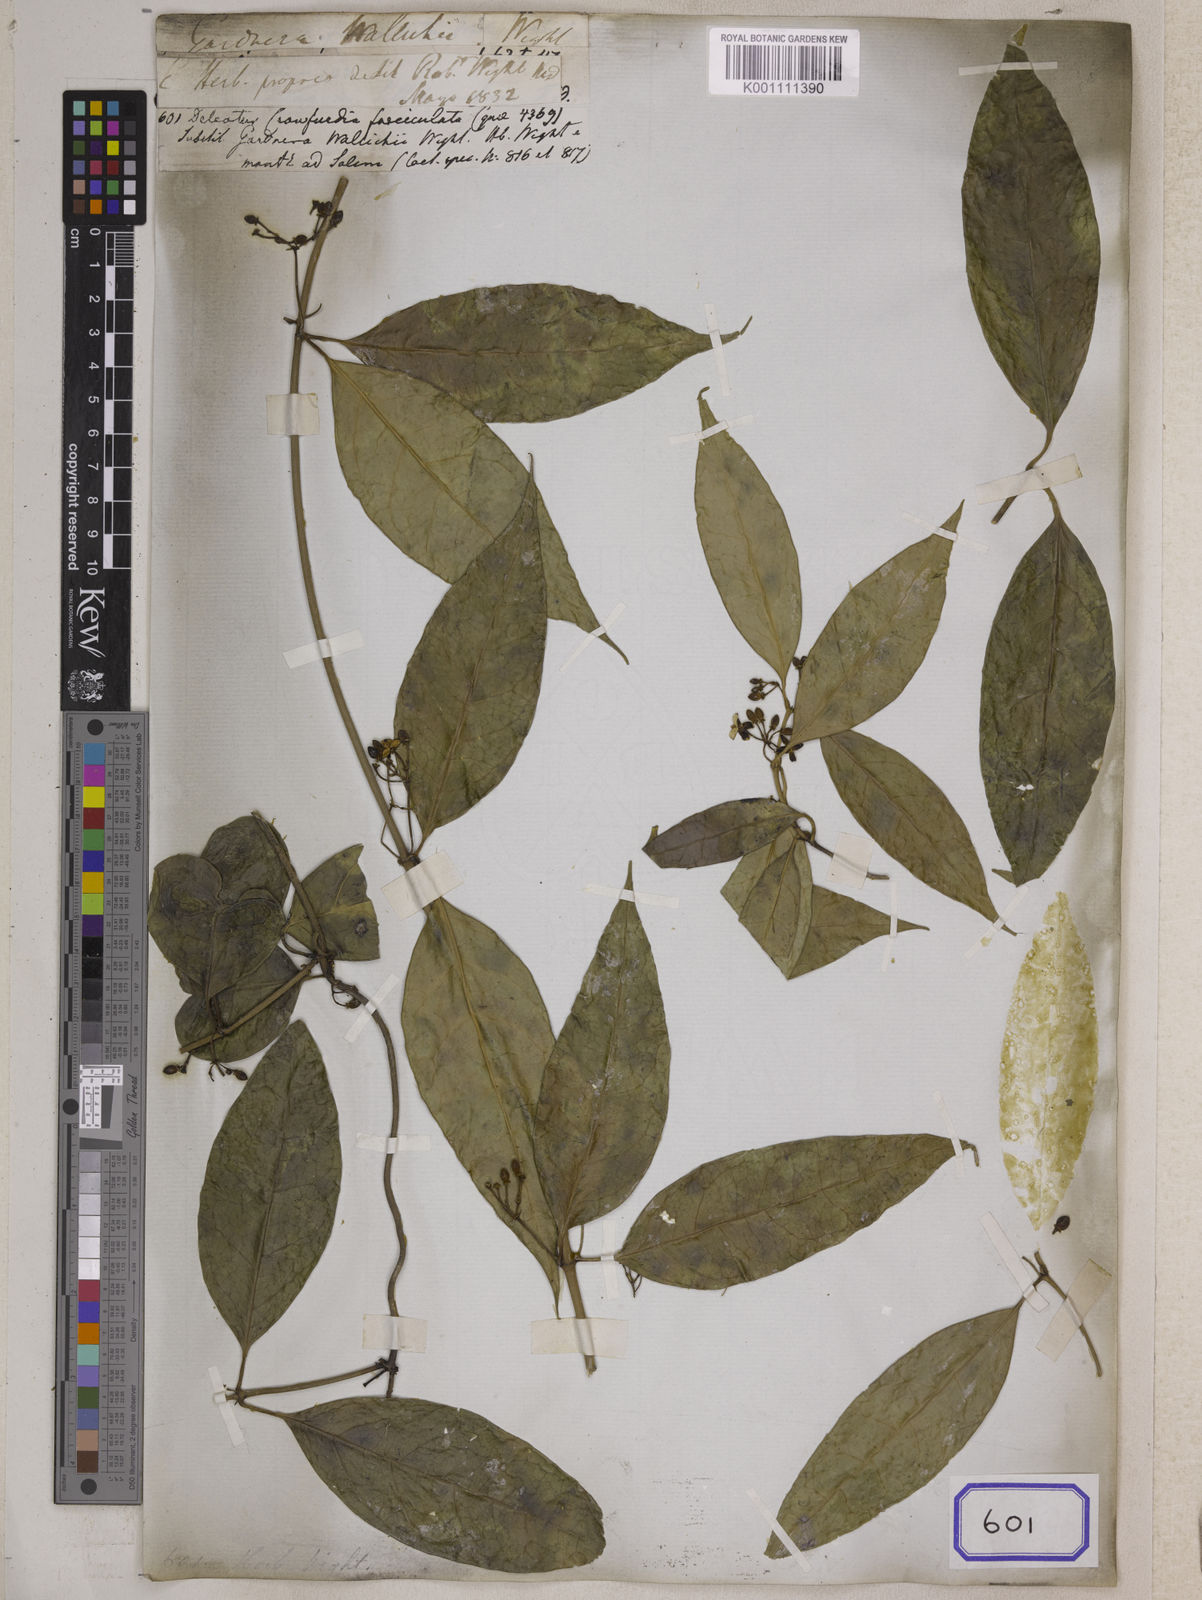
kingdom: Plantae
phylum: Tracheophyta
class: Magnoliopsida
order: Gentianales
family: Loganiaceae
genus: Gardneria
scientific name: Gardneria ovata
